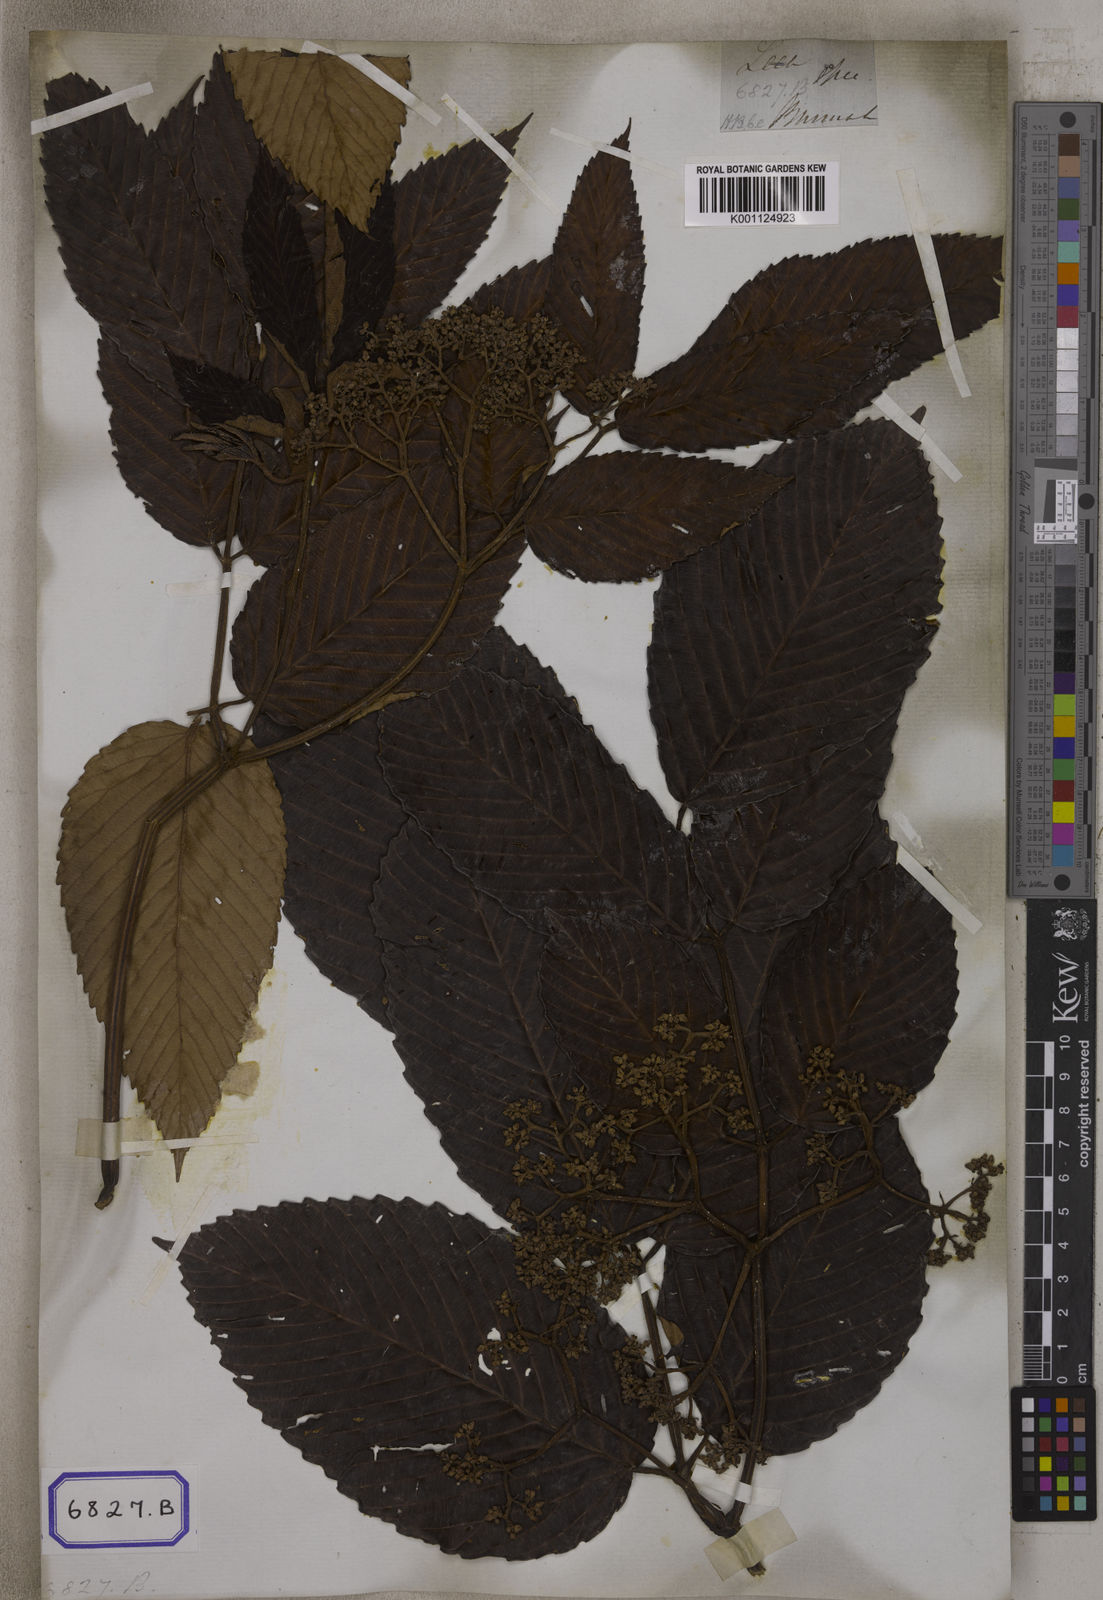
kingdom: Plantae
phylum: Tracheophyta
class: Magnoliopsida
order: Vitales
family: Vitaceae
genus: Leea
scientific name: Leea asiatica
